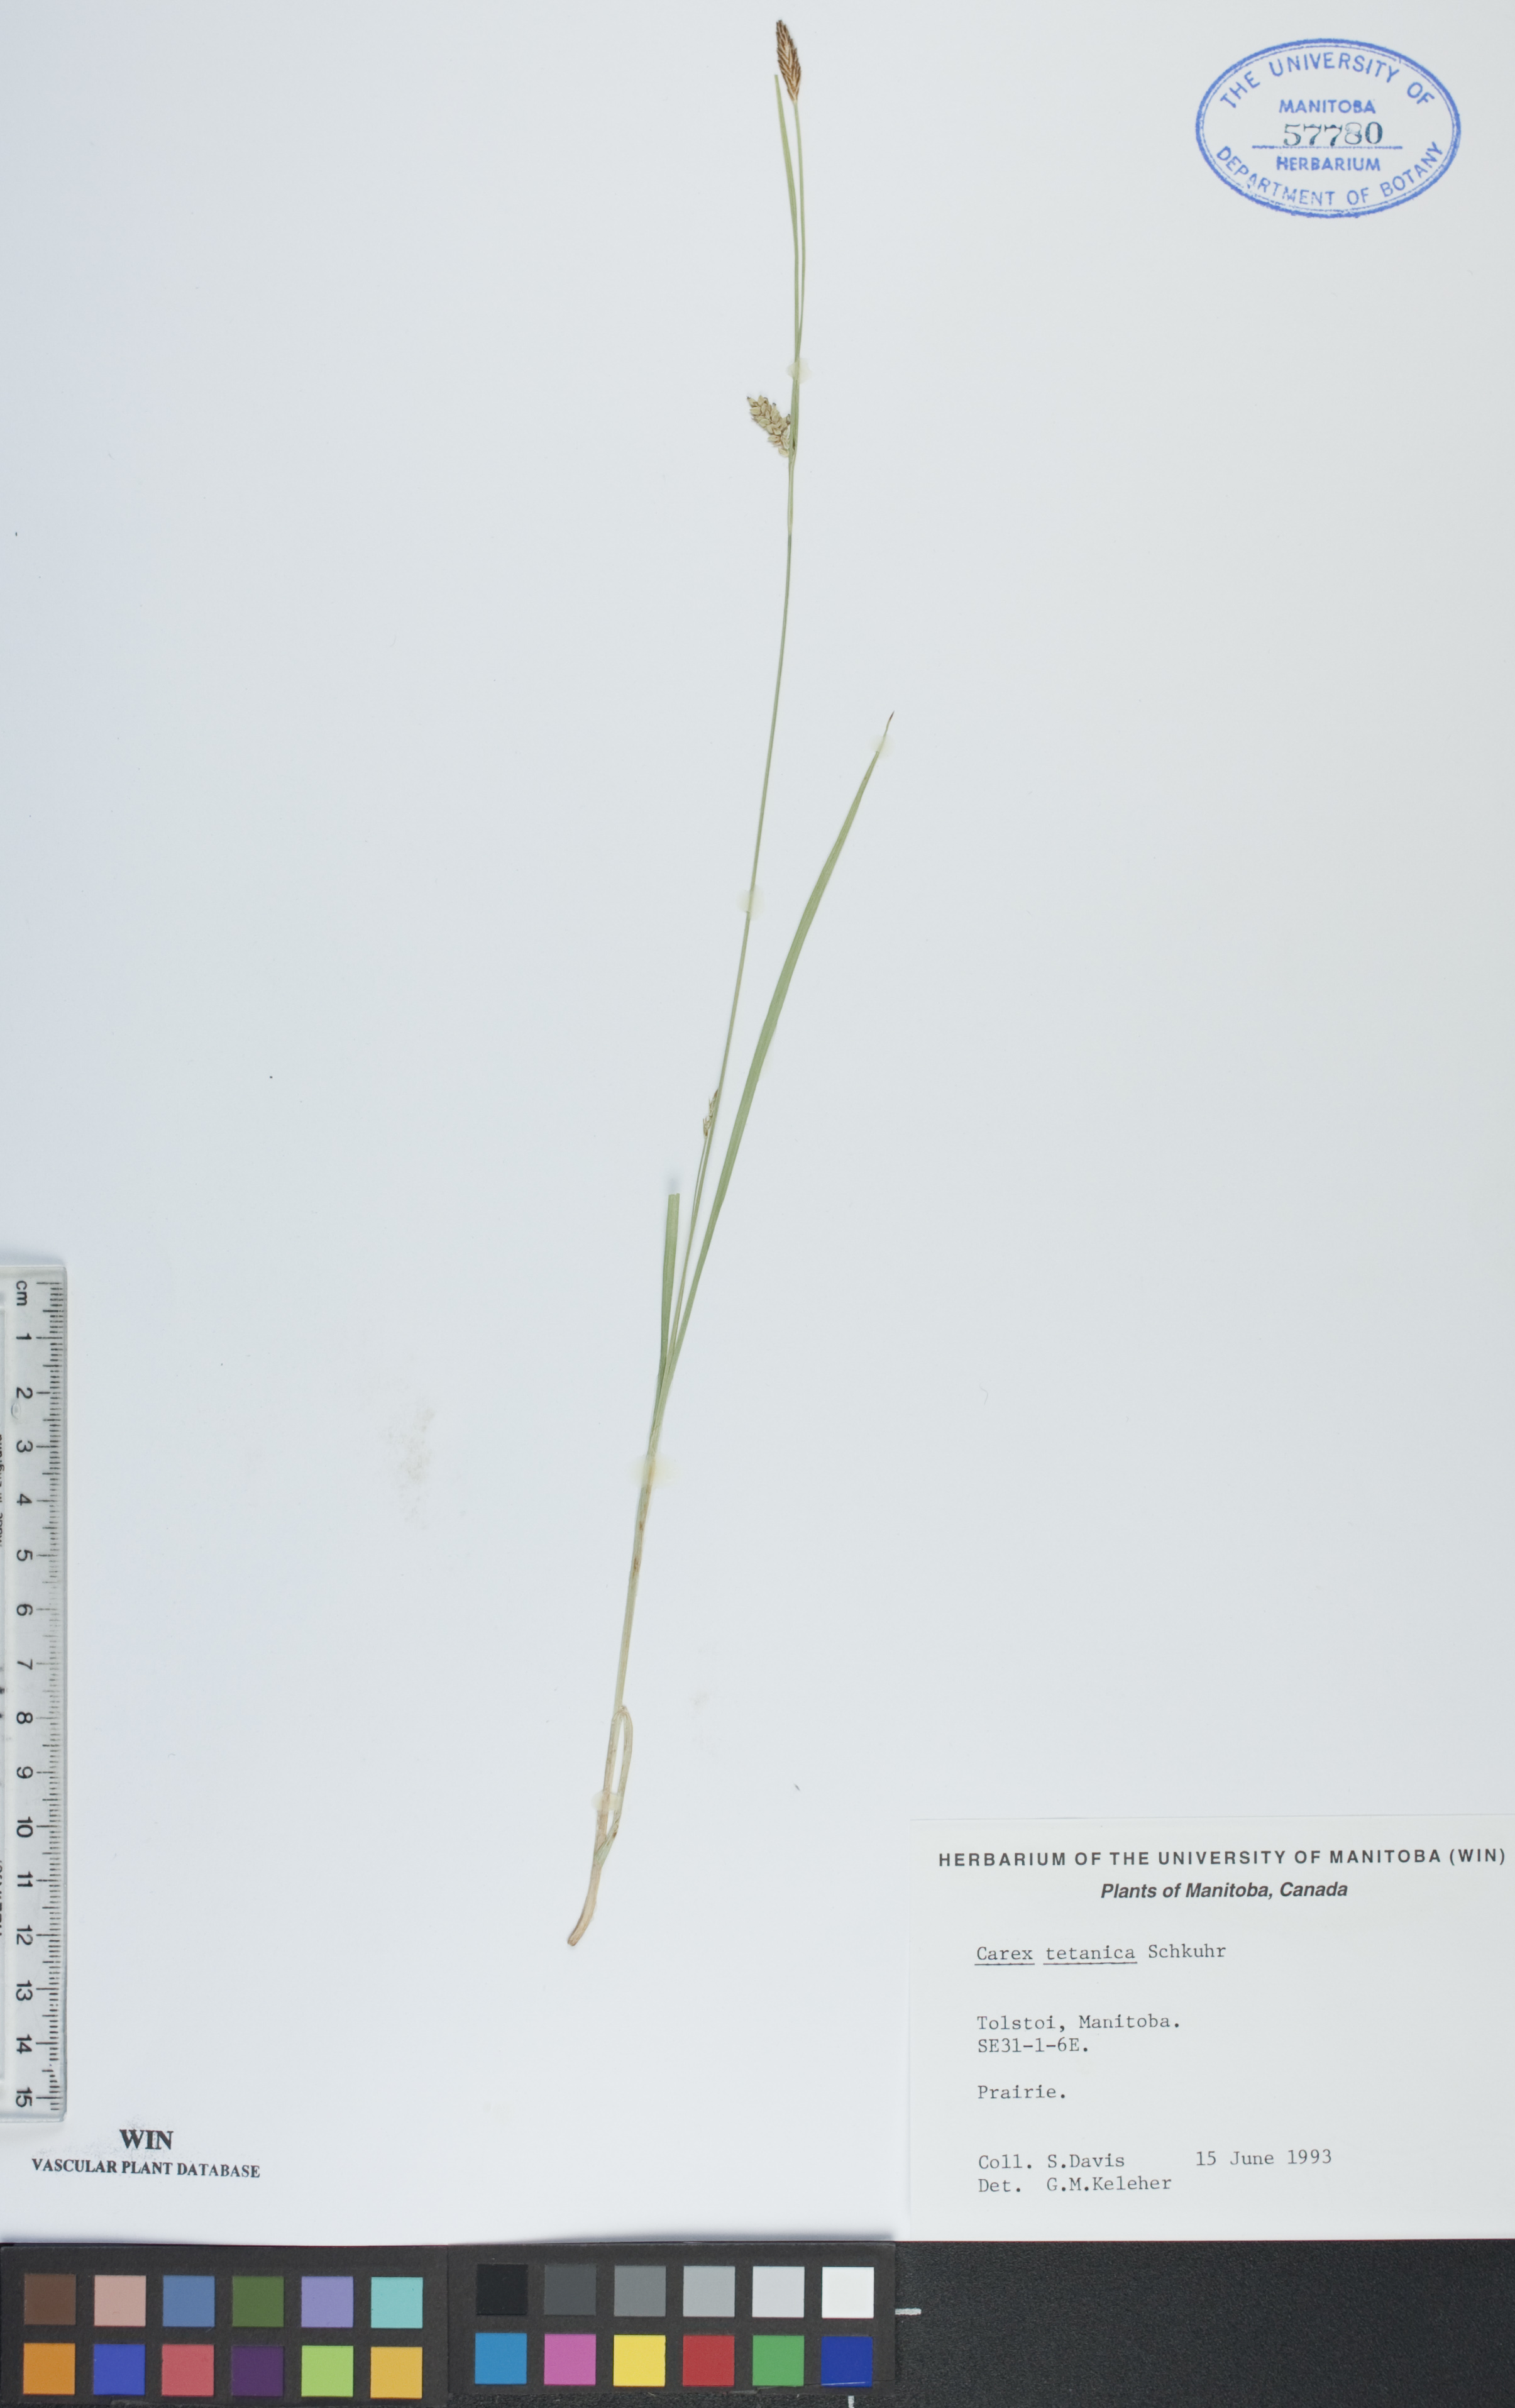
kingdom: Plantae
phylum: Tracheophyta
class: Liliopsida
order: Poales
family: Cyperaceae
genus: Carex
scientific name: Carex tetanica
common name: Rigid sedge
